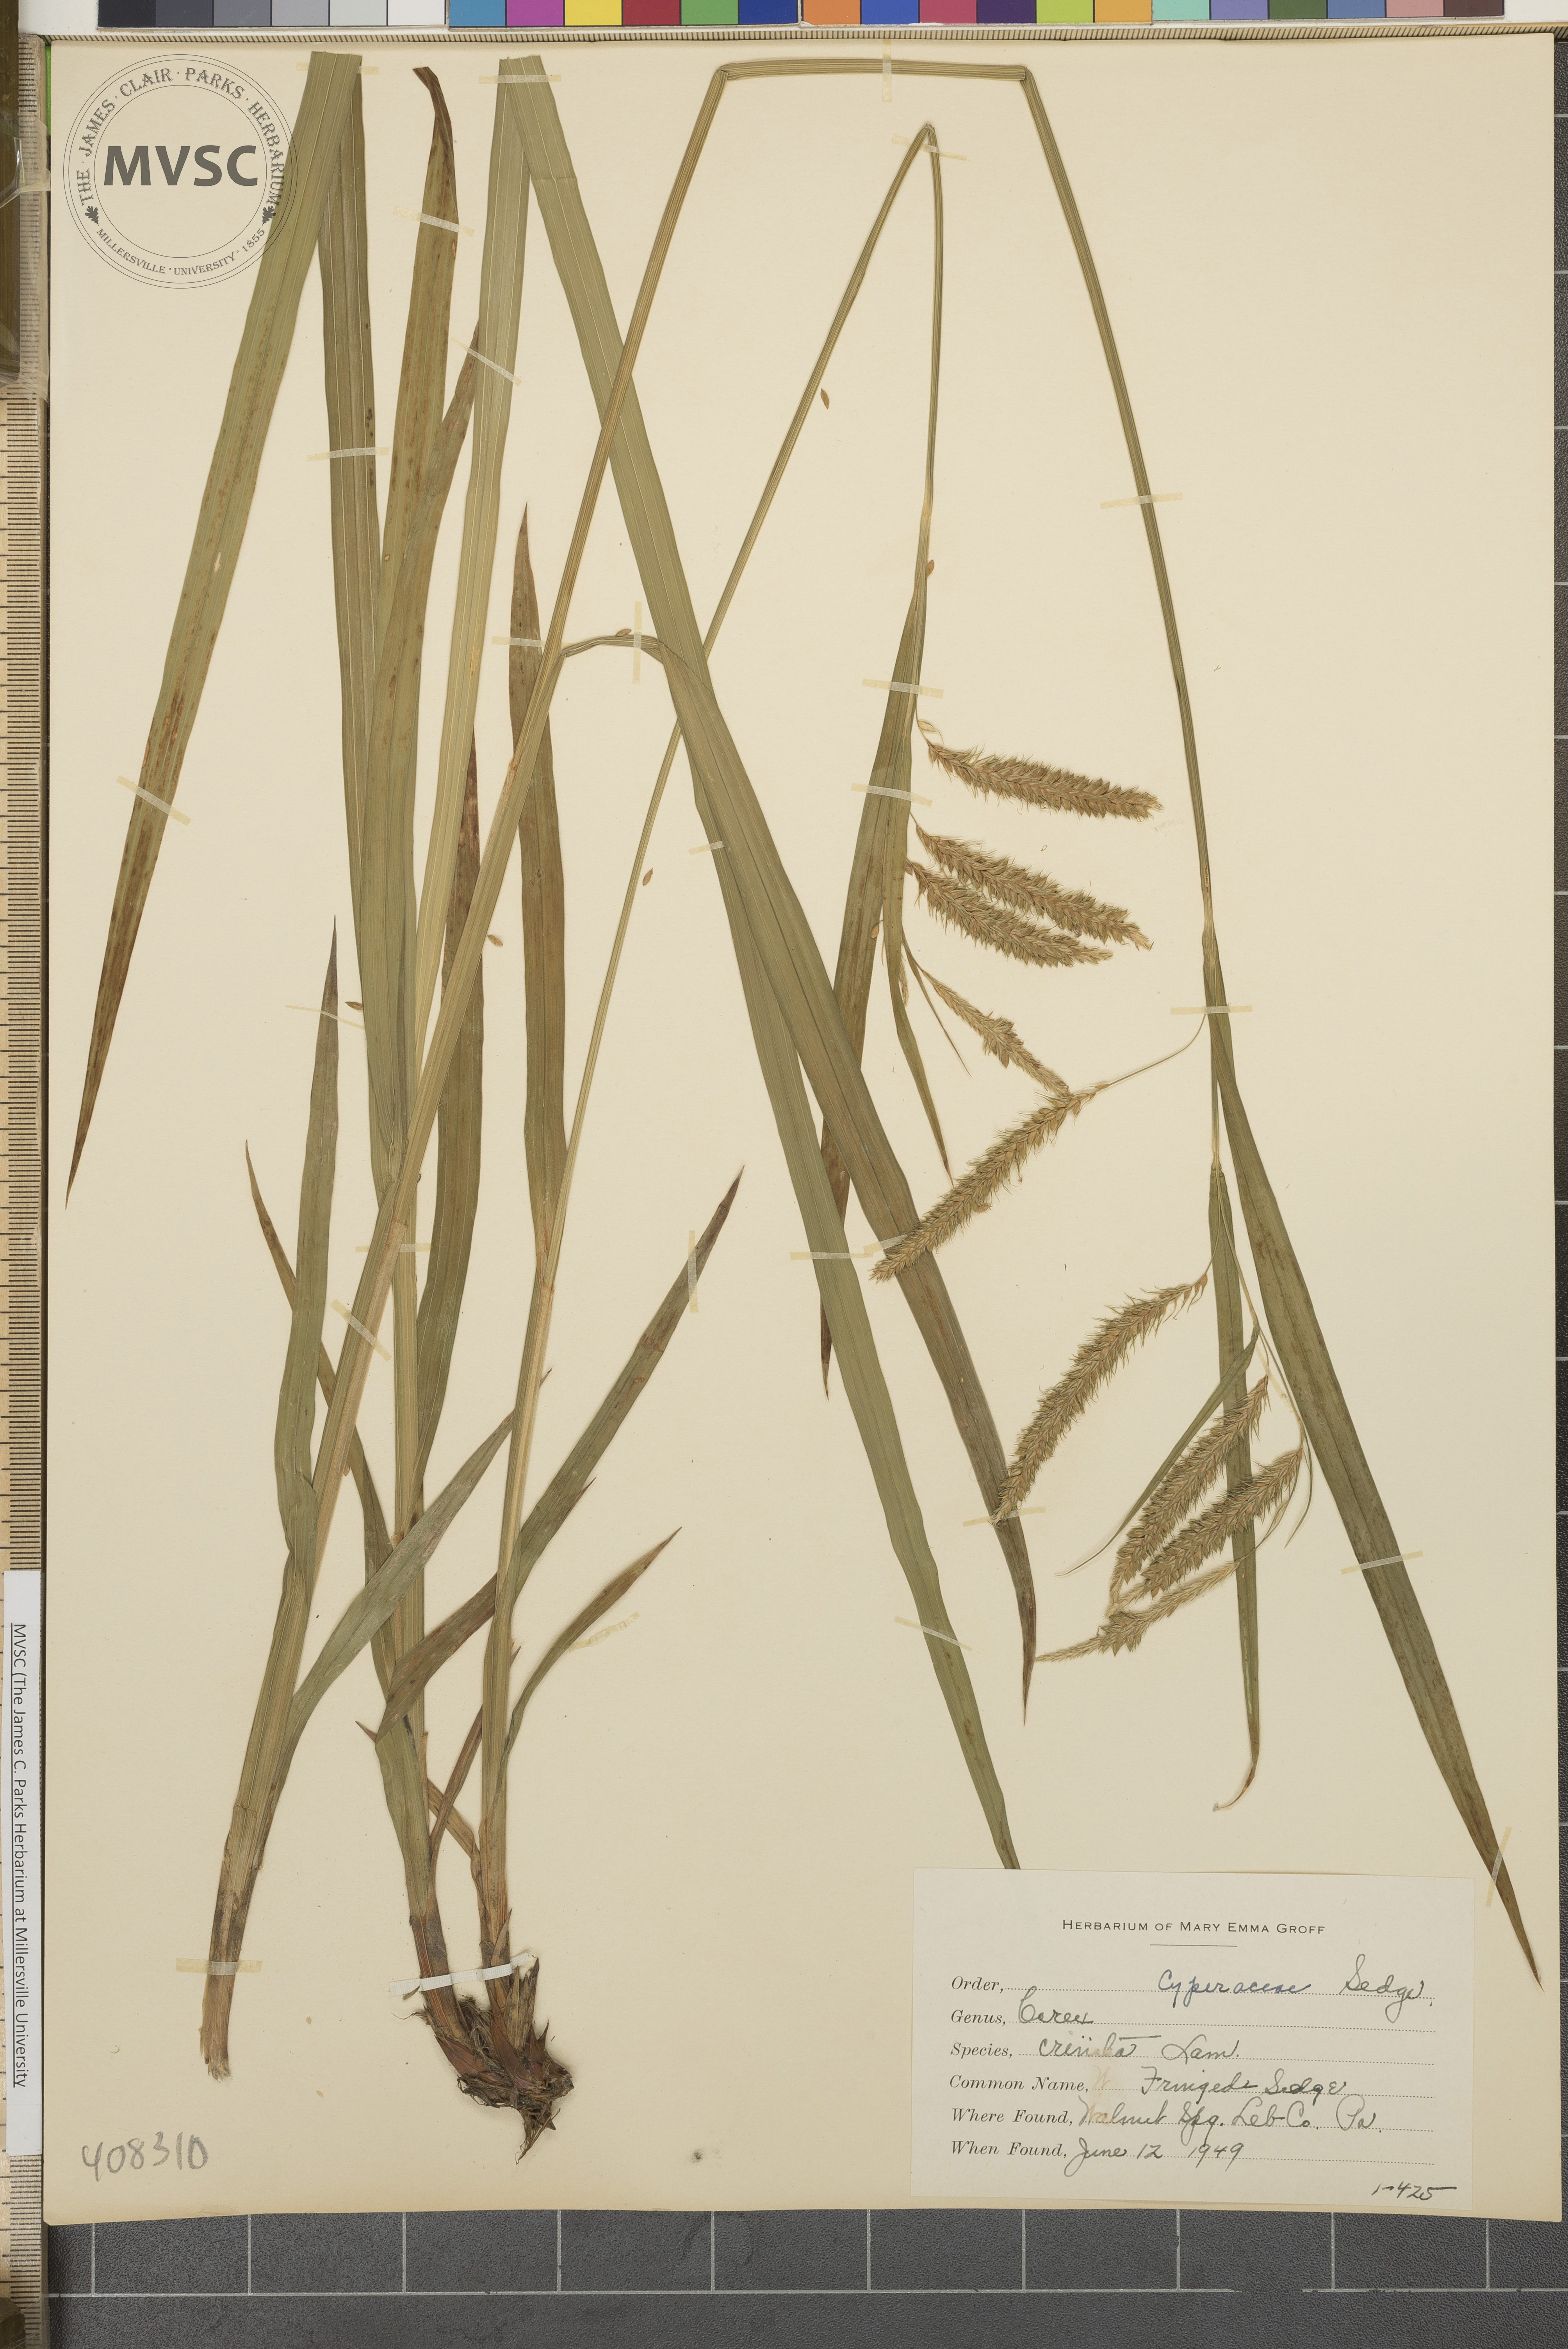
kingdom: Plantae
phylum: Tracheophyta
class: Liliopsida
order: Poales
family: Cyperaceae
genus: Carex
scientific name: Carex crinita
